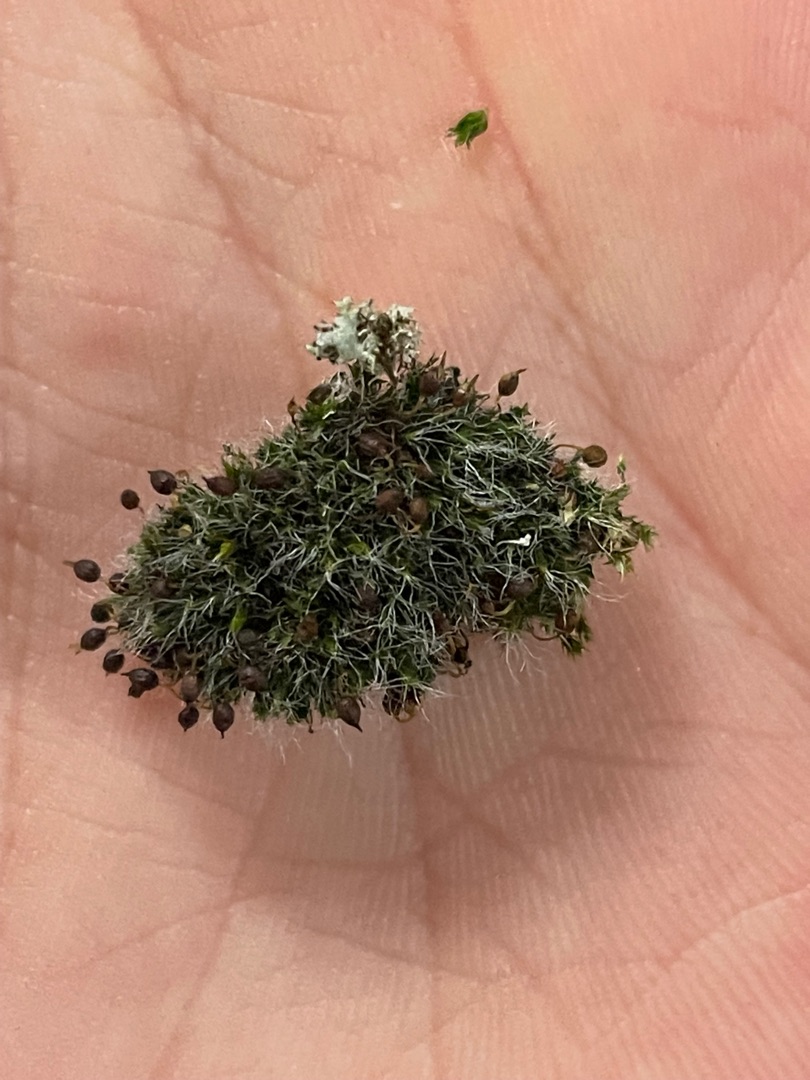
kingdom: Plantae
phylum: Bryophyta
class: Bryopsida
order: Grimmiales
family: Grimmiaceae
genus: Grimmia
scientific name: Grimmia pulvinata
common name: Pude-gråmos
